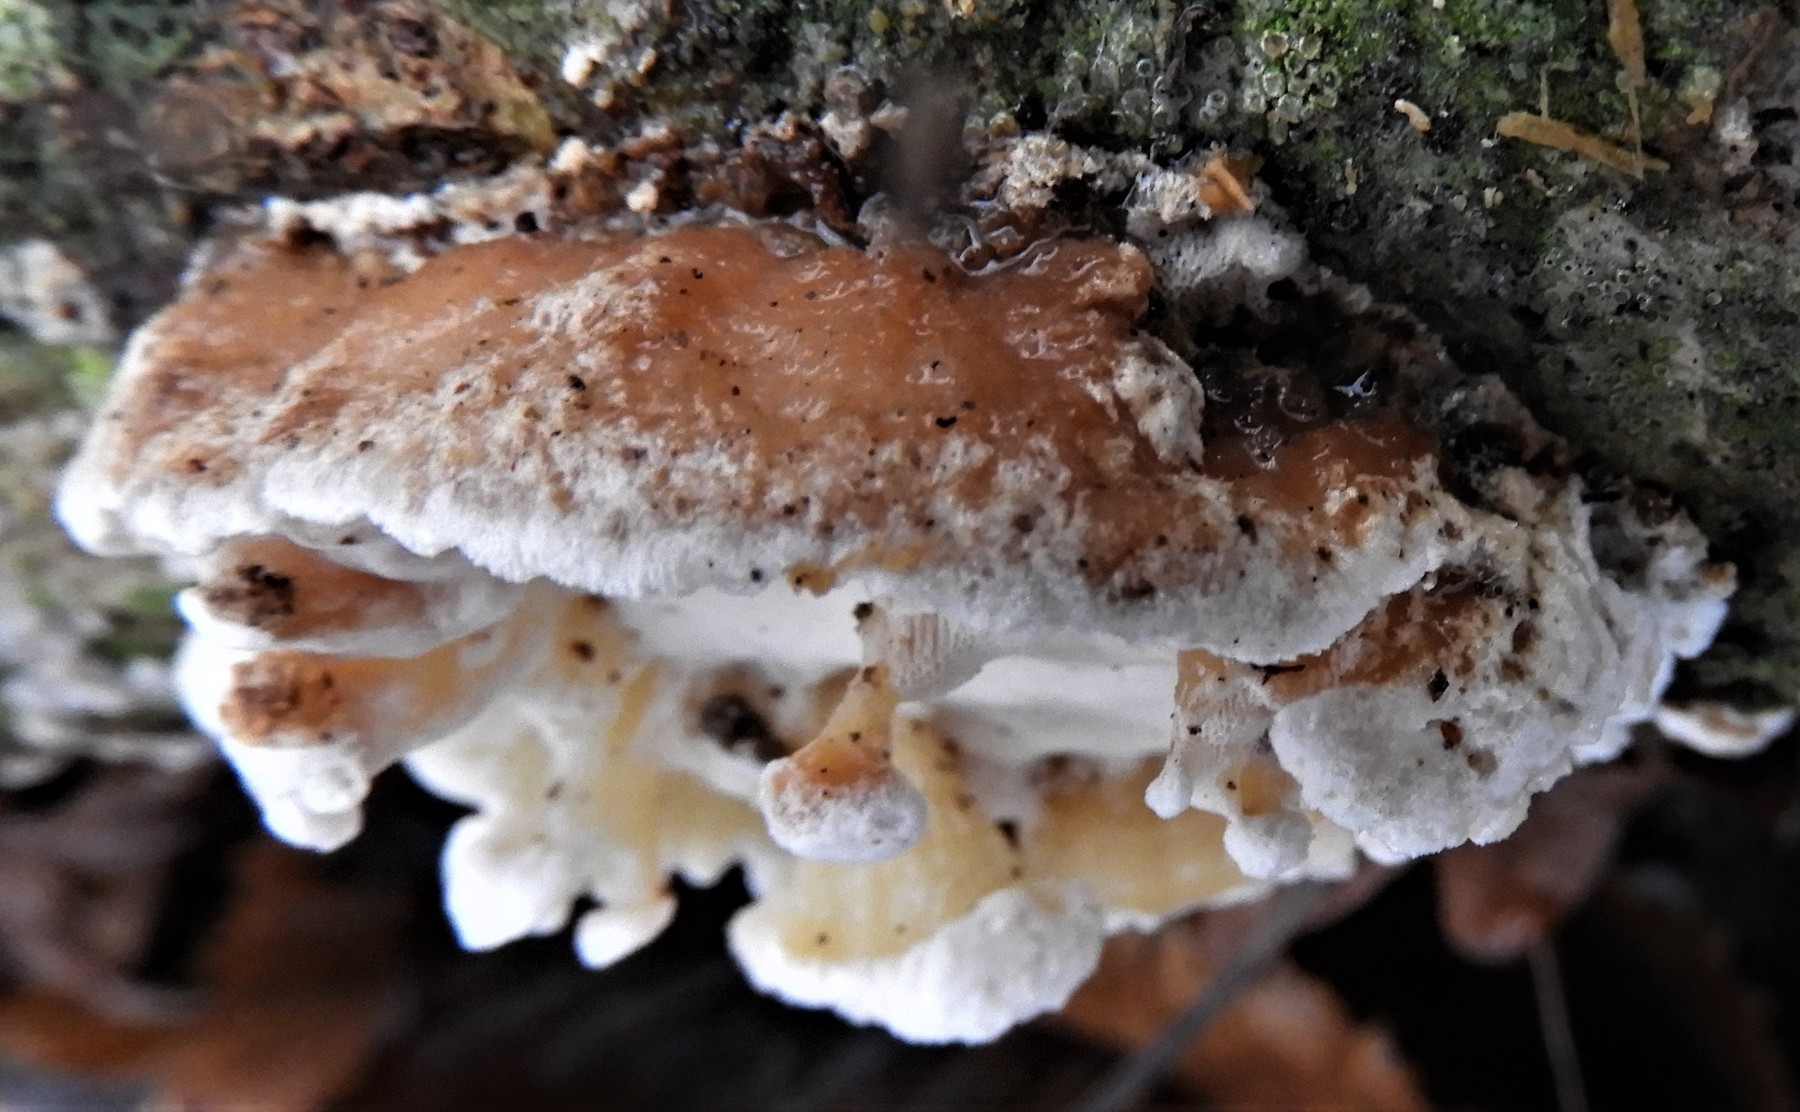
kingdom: Fungi
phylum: Basidiomycota
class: Agaricomycetes
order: Polyporales
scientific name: Polyporales
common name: poresvampordenen
